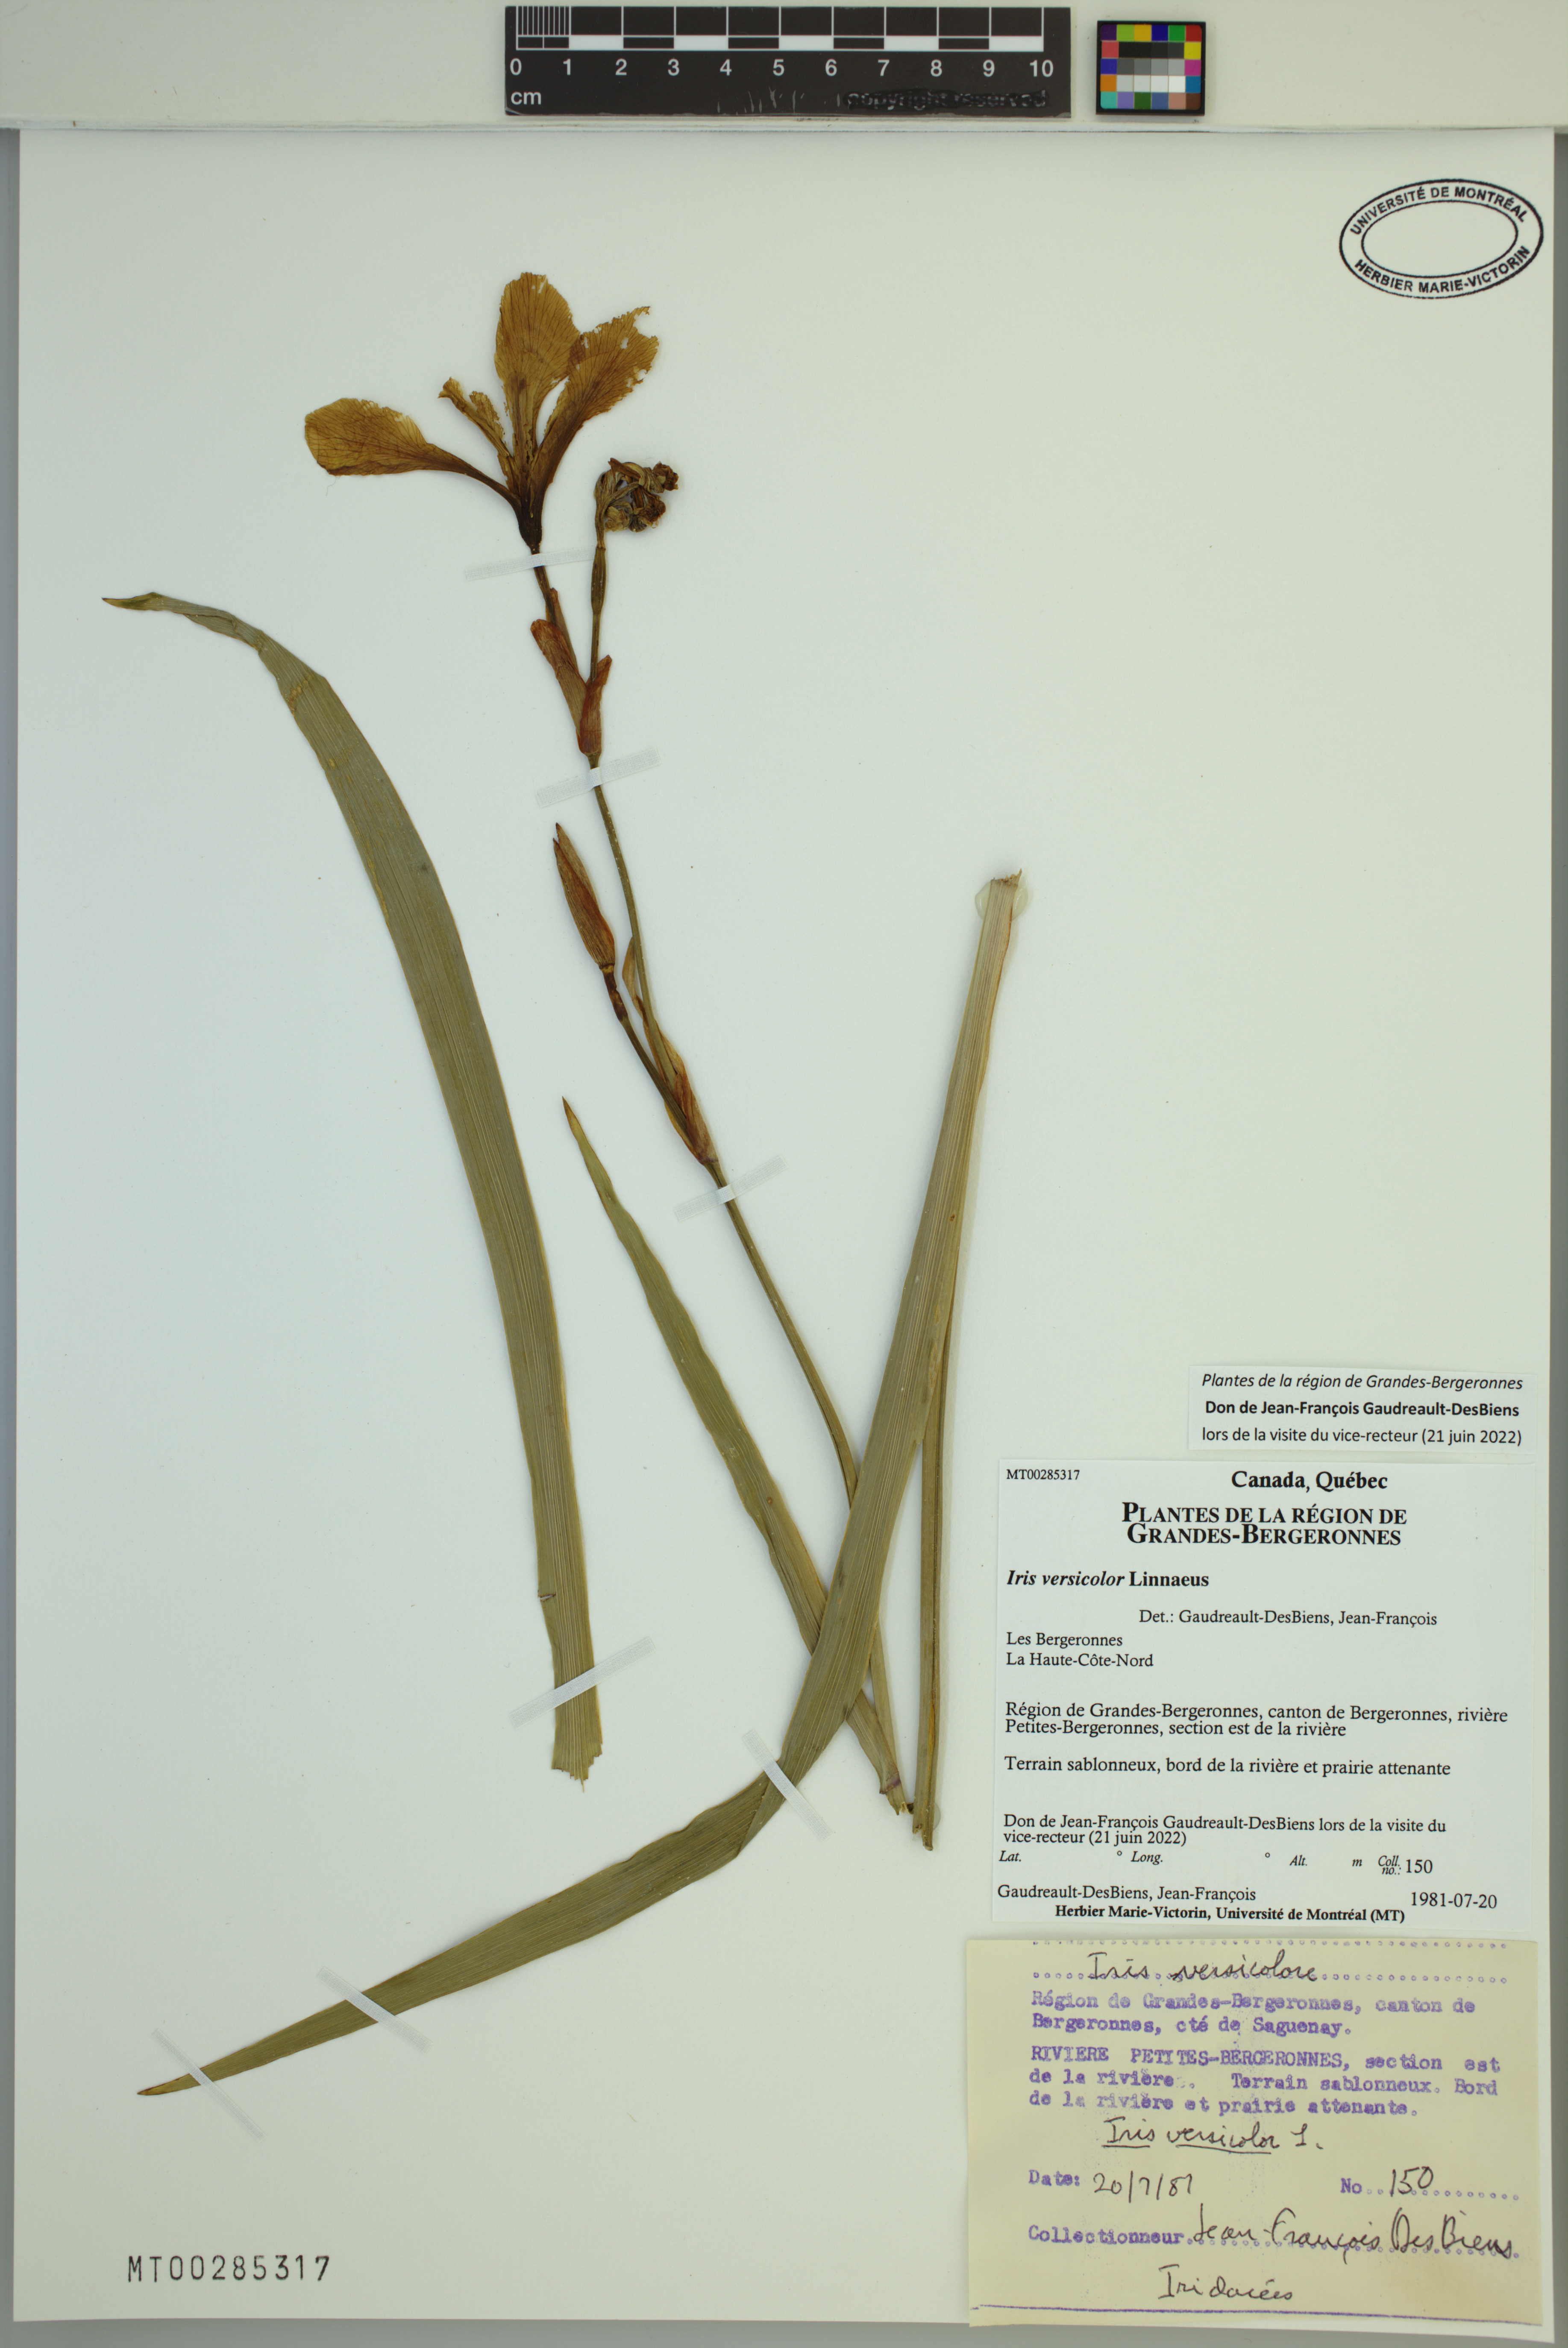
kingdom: Plantae
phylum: Tracheophyta
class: Liliopsida
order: Asparagales
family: Iridaceae
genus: Iris
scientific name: Iris versicolor
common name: Purple iris
